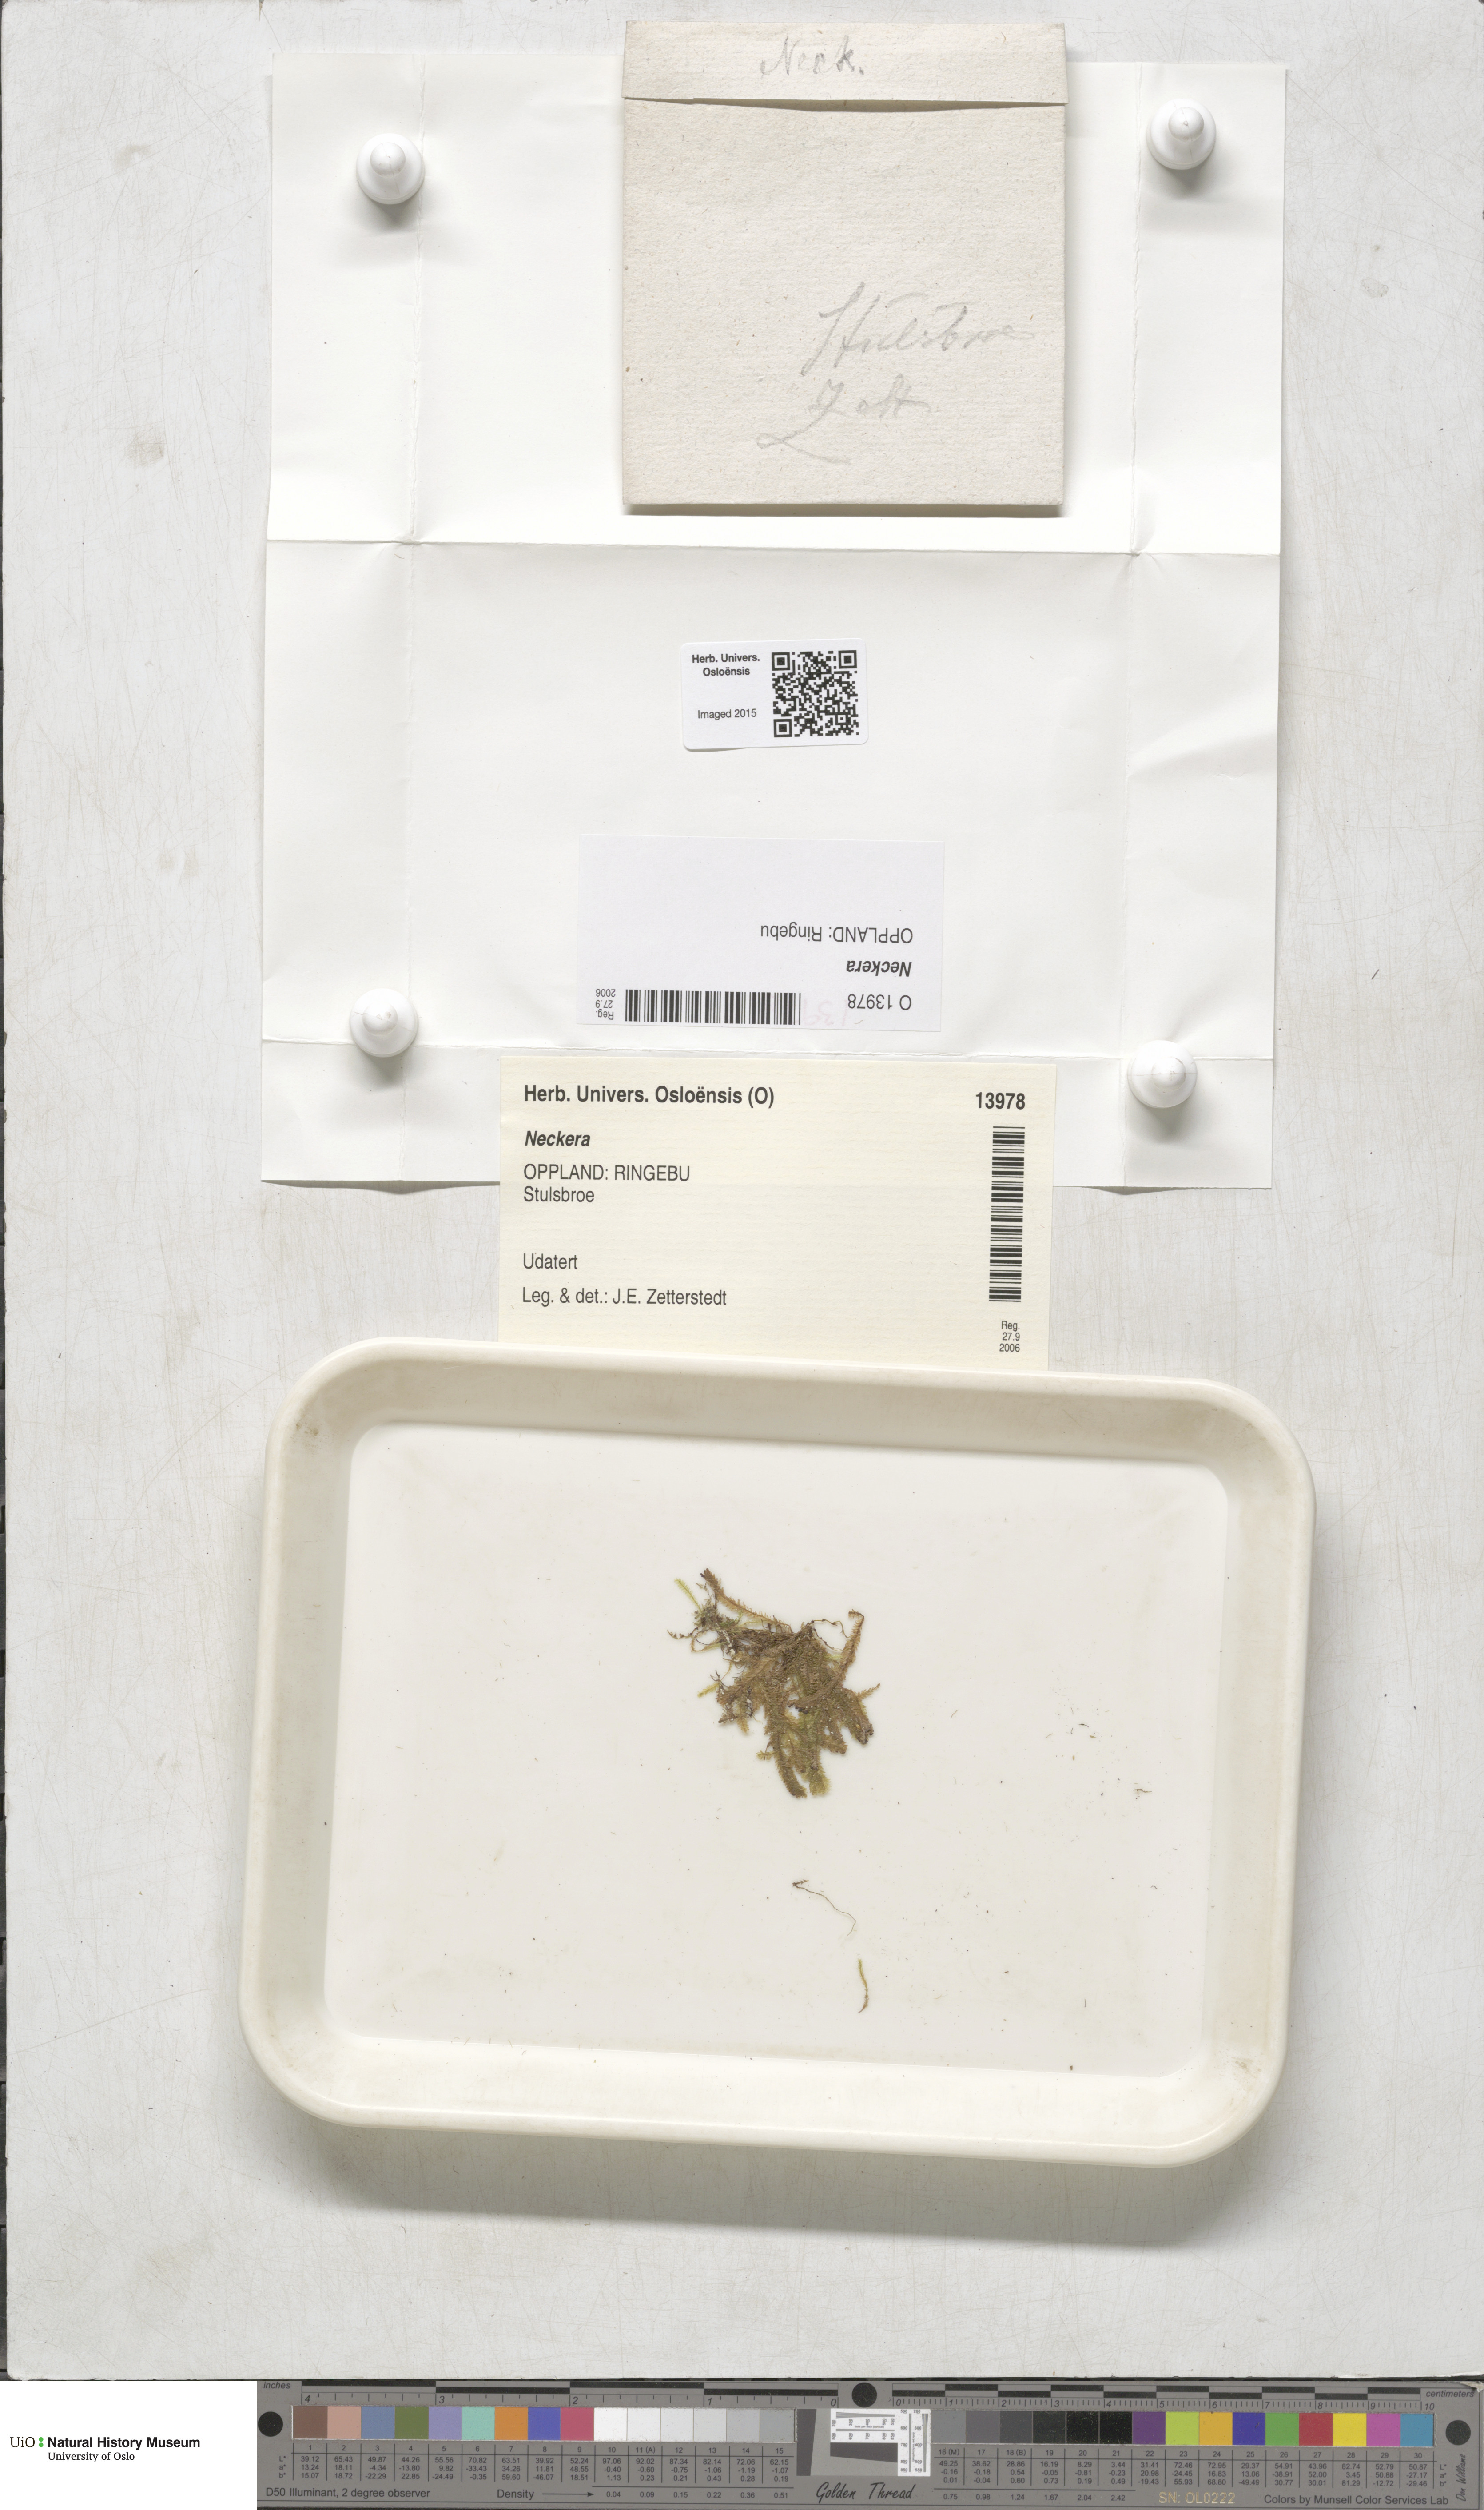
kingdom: Plantae
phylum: Bryophyta
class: Bryopsida
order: Hypnales
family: Neckeraceae
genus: Neckera
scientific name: Neckera
